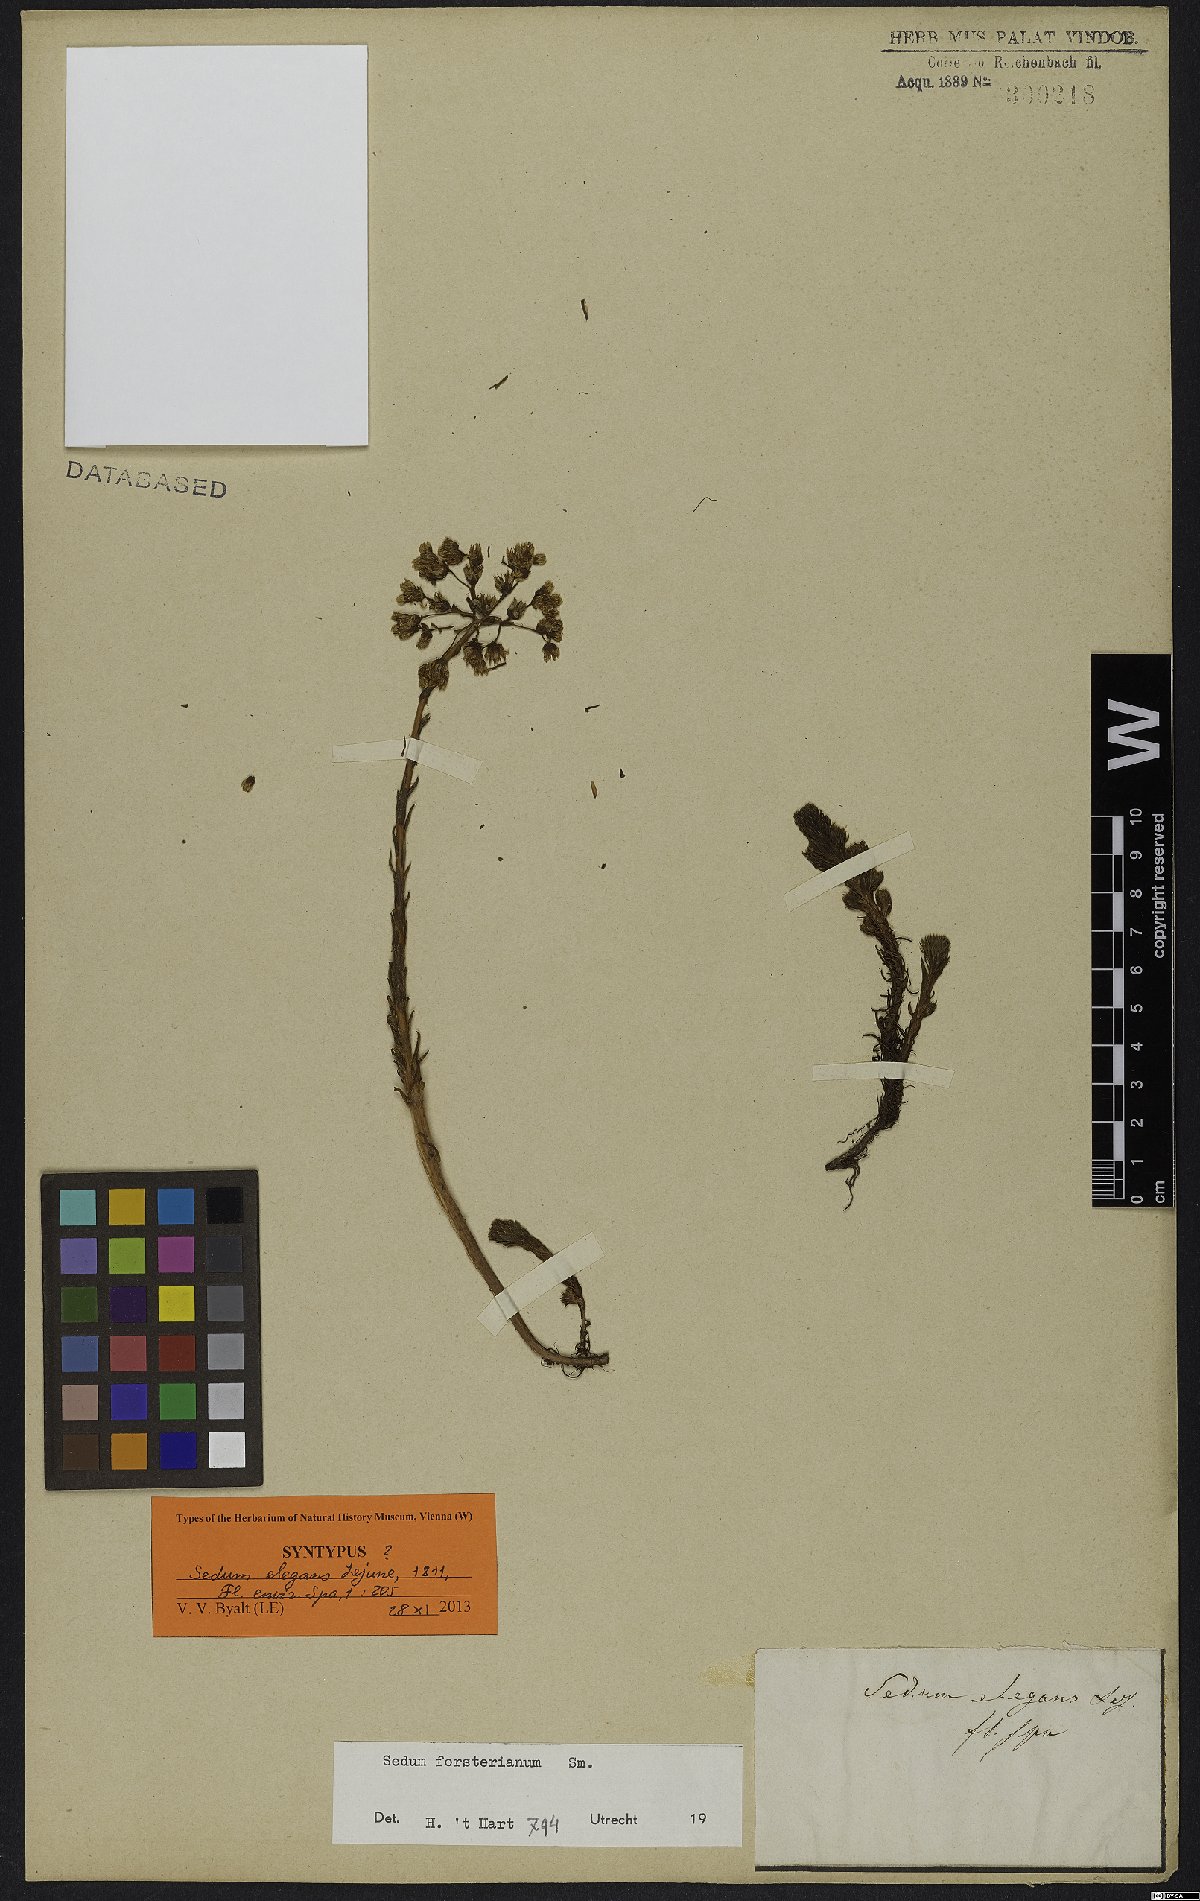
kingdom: Plantae
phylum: Tracheophyta
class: Magnoliopsida
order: Saxifragales
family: Crassulaceae
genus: Petrosedum
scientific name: Petrosedum forsterianum
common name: Forster's stonecrop
